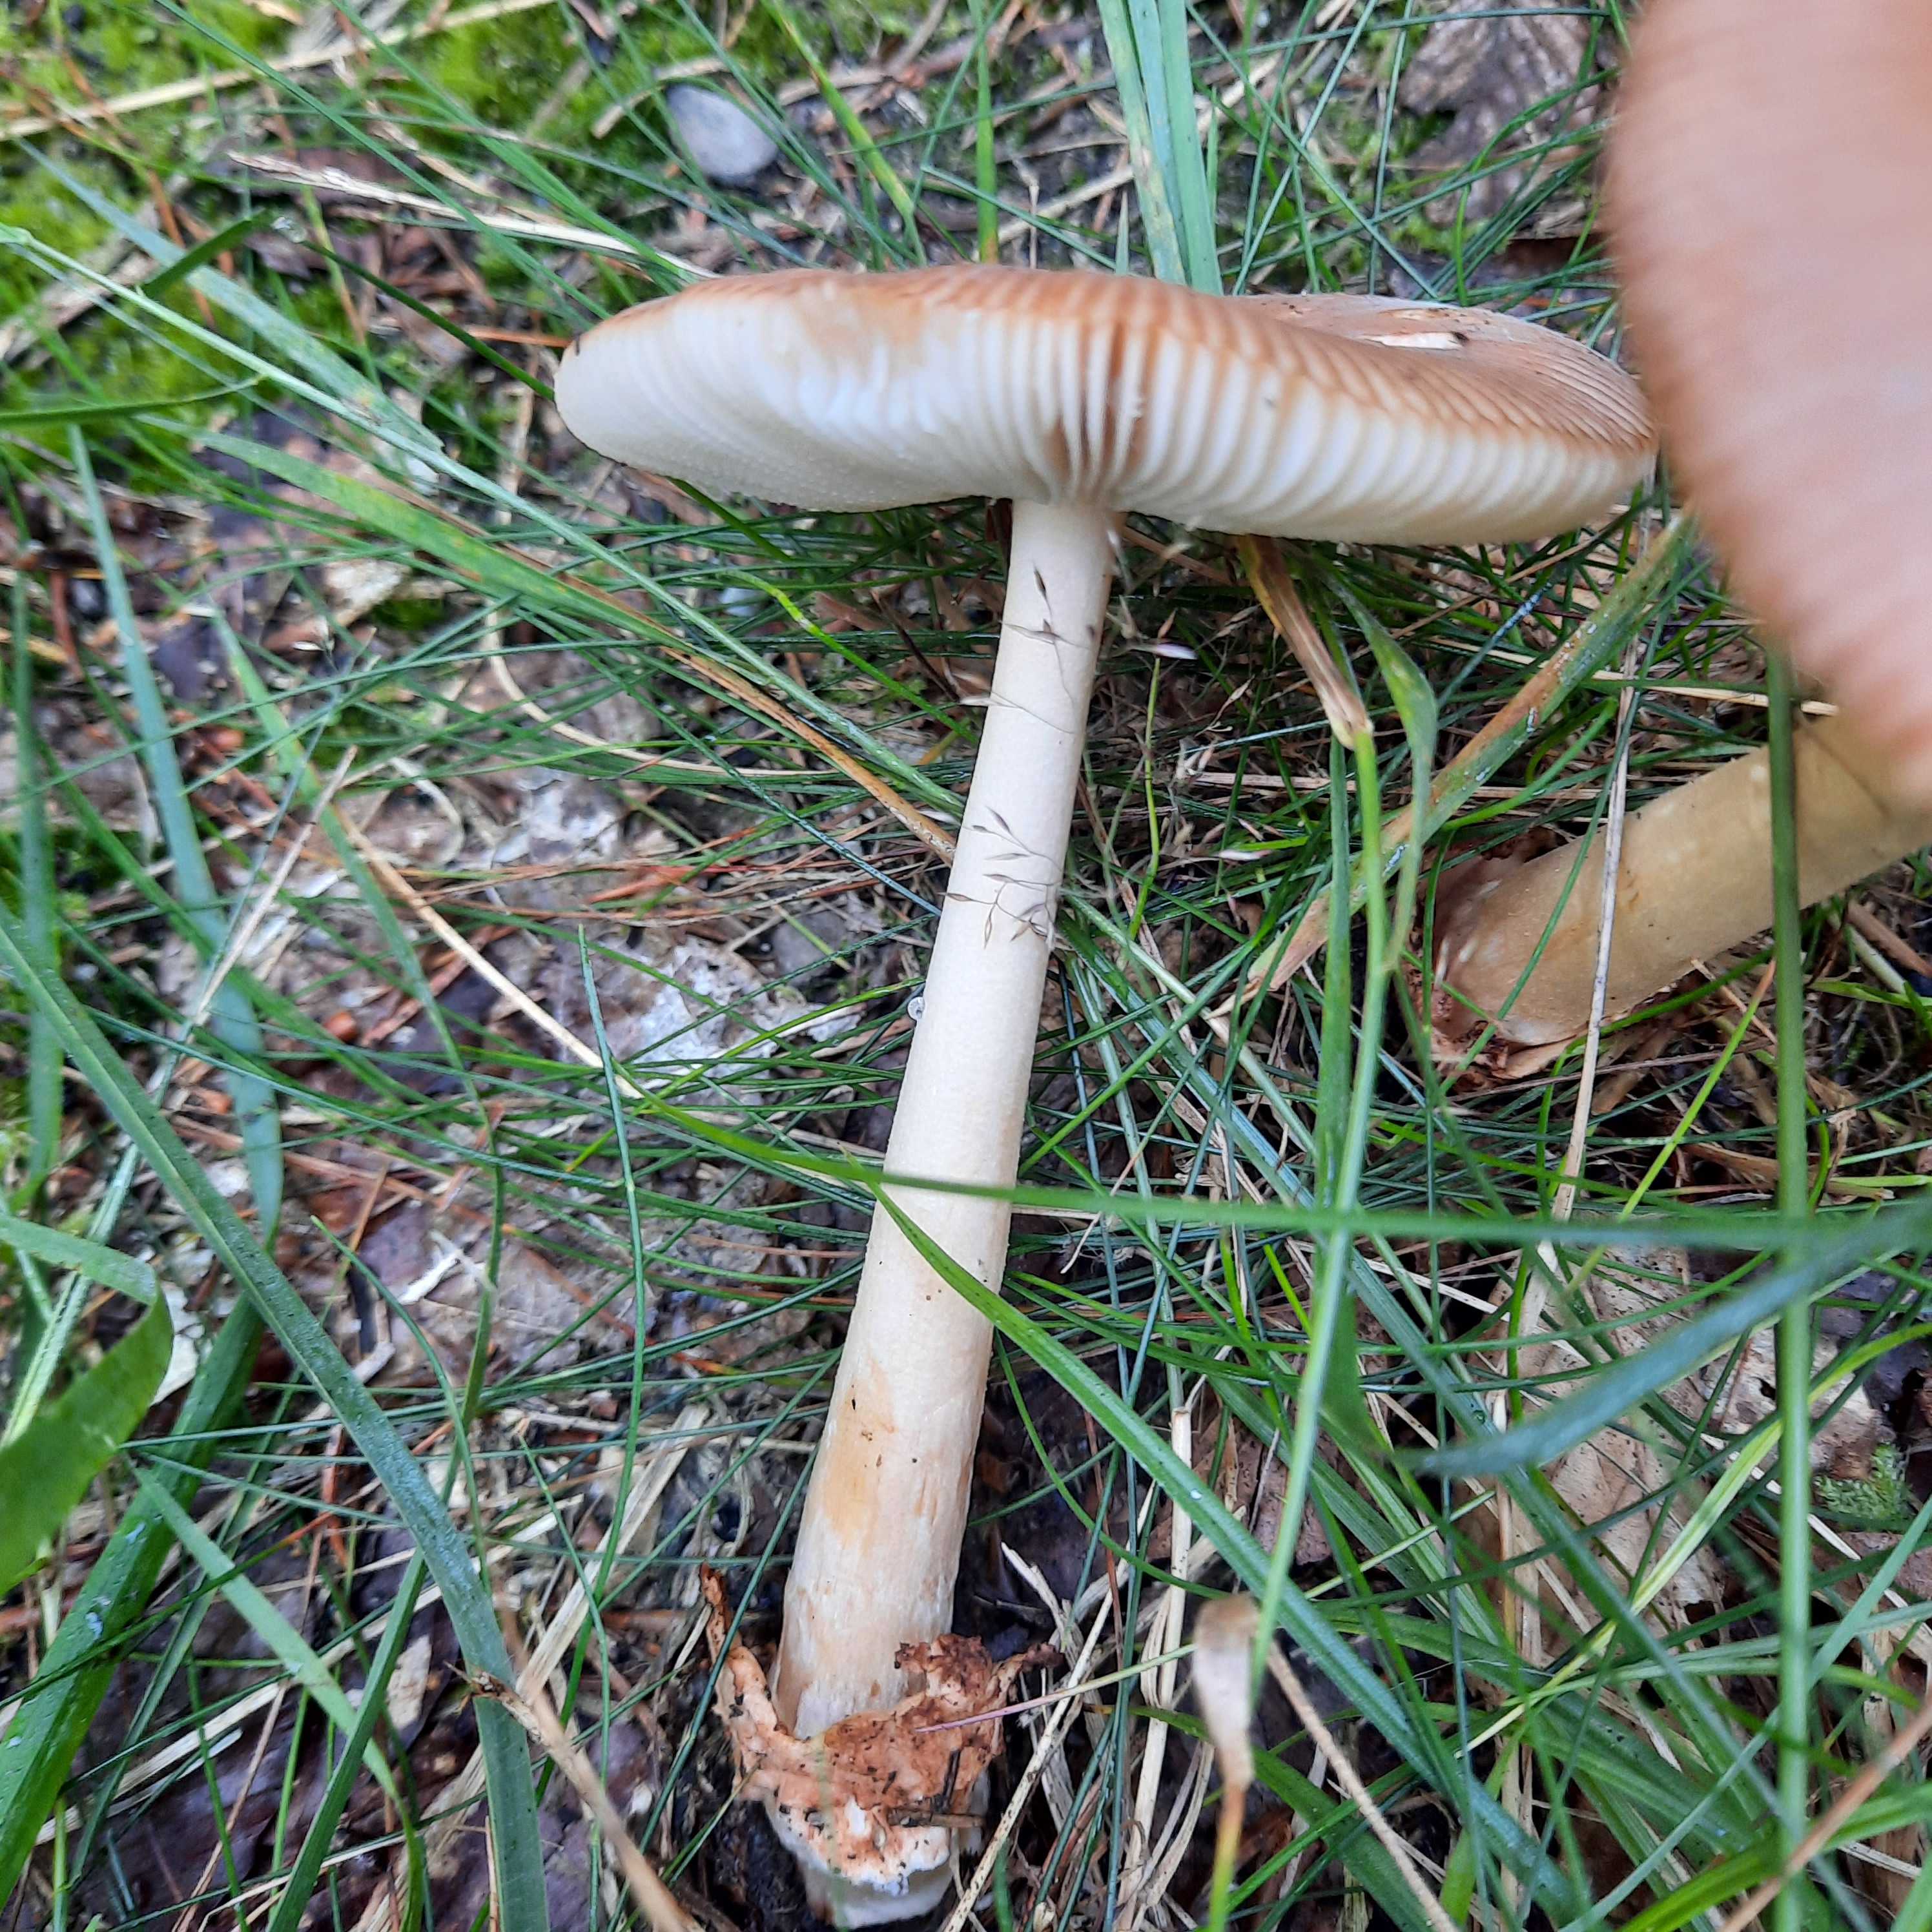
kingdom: Fungi
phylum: Basidiomycota
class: Agaricomycetes
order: Agaricales
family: Amanitaceae
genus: Amanita
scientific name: Amanita fulva
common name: brun kam-fluesvamp
